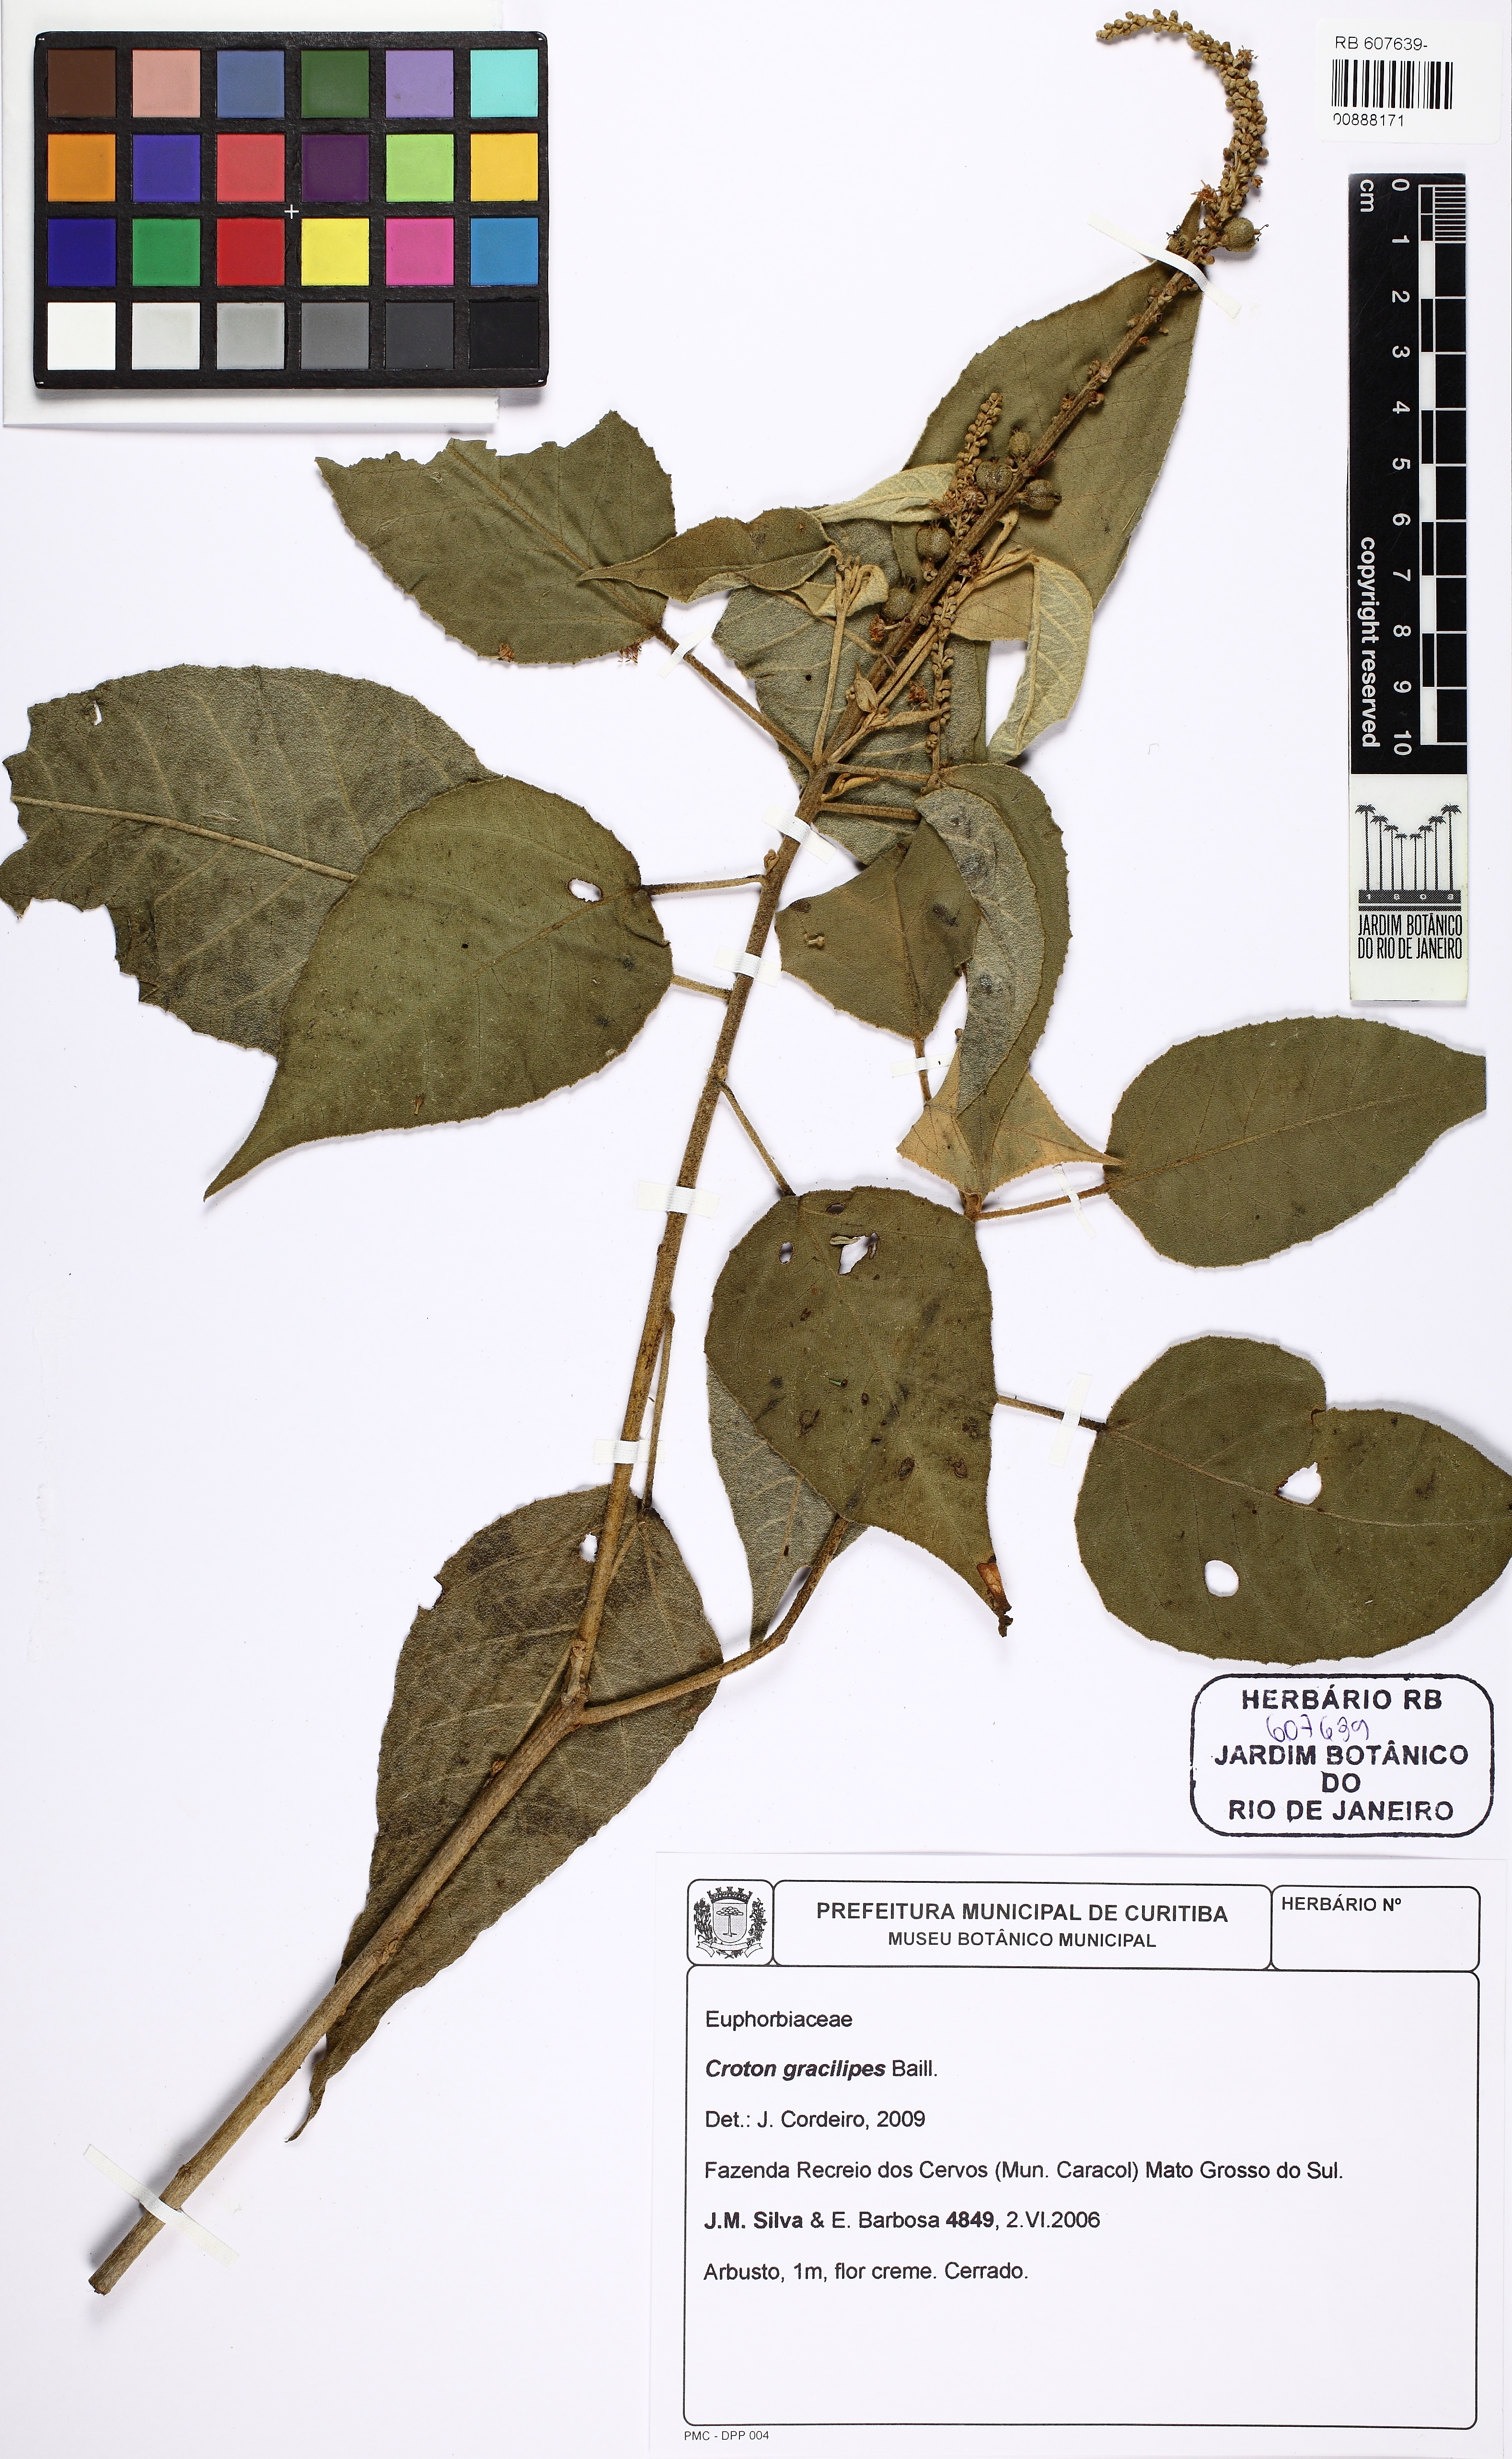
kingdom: Plantae
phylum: Tracheophyta
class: Magnoliopsida
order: Malpighiales
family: Euphorbiaceae
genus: Croton
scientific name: Croton gracilipes
